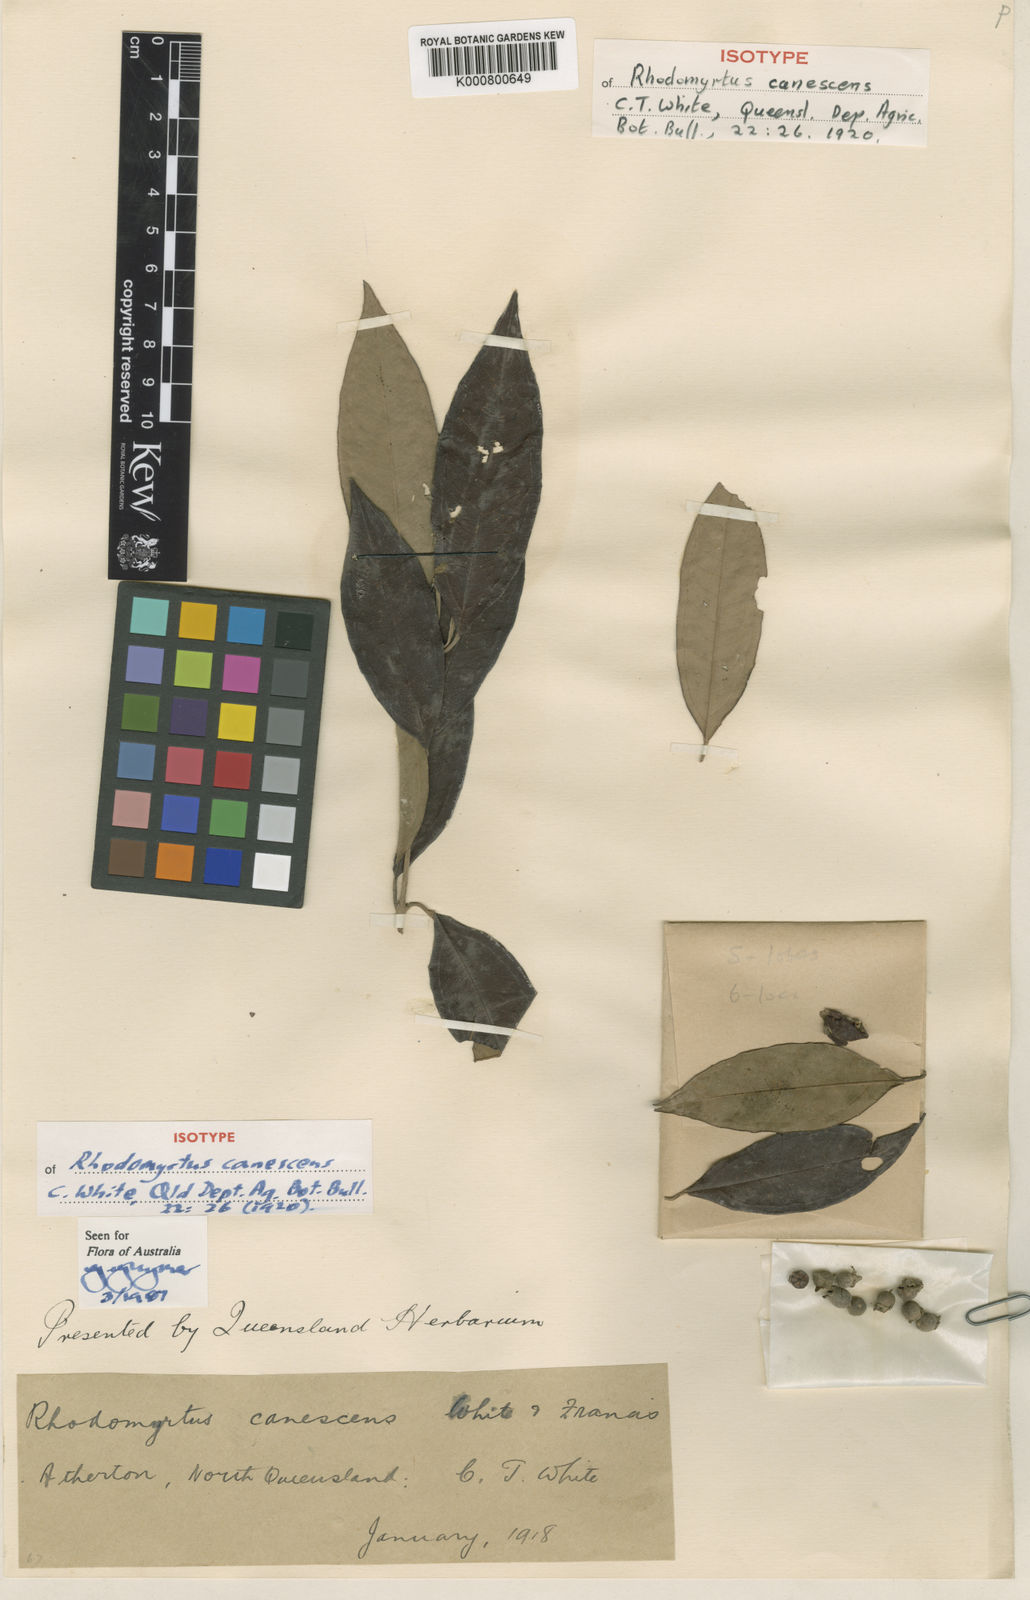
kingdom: Plantae
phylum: Tracheophyta
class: Magnoliopsida
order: Myrtales
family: Myrtaceae
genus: Rhodomyrtus
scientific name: Rhodomyrtus trineura
